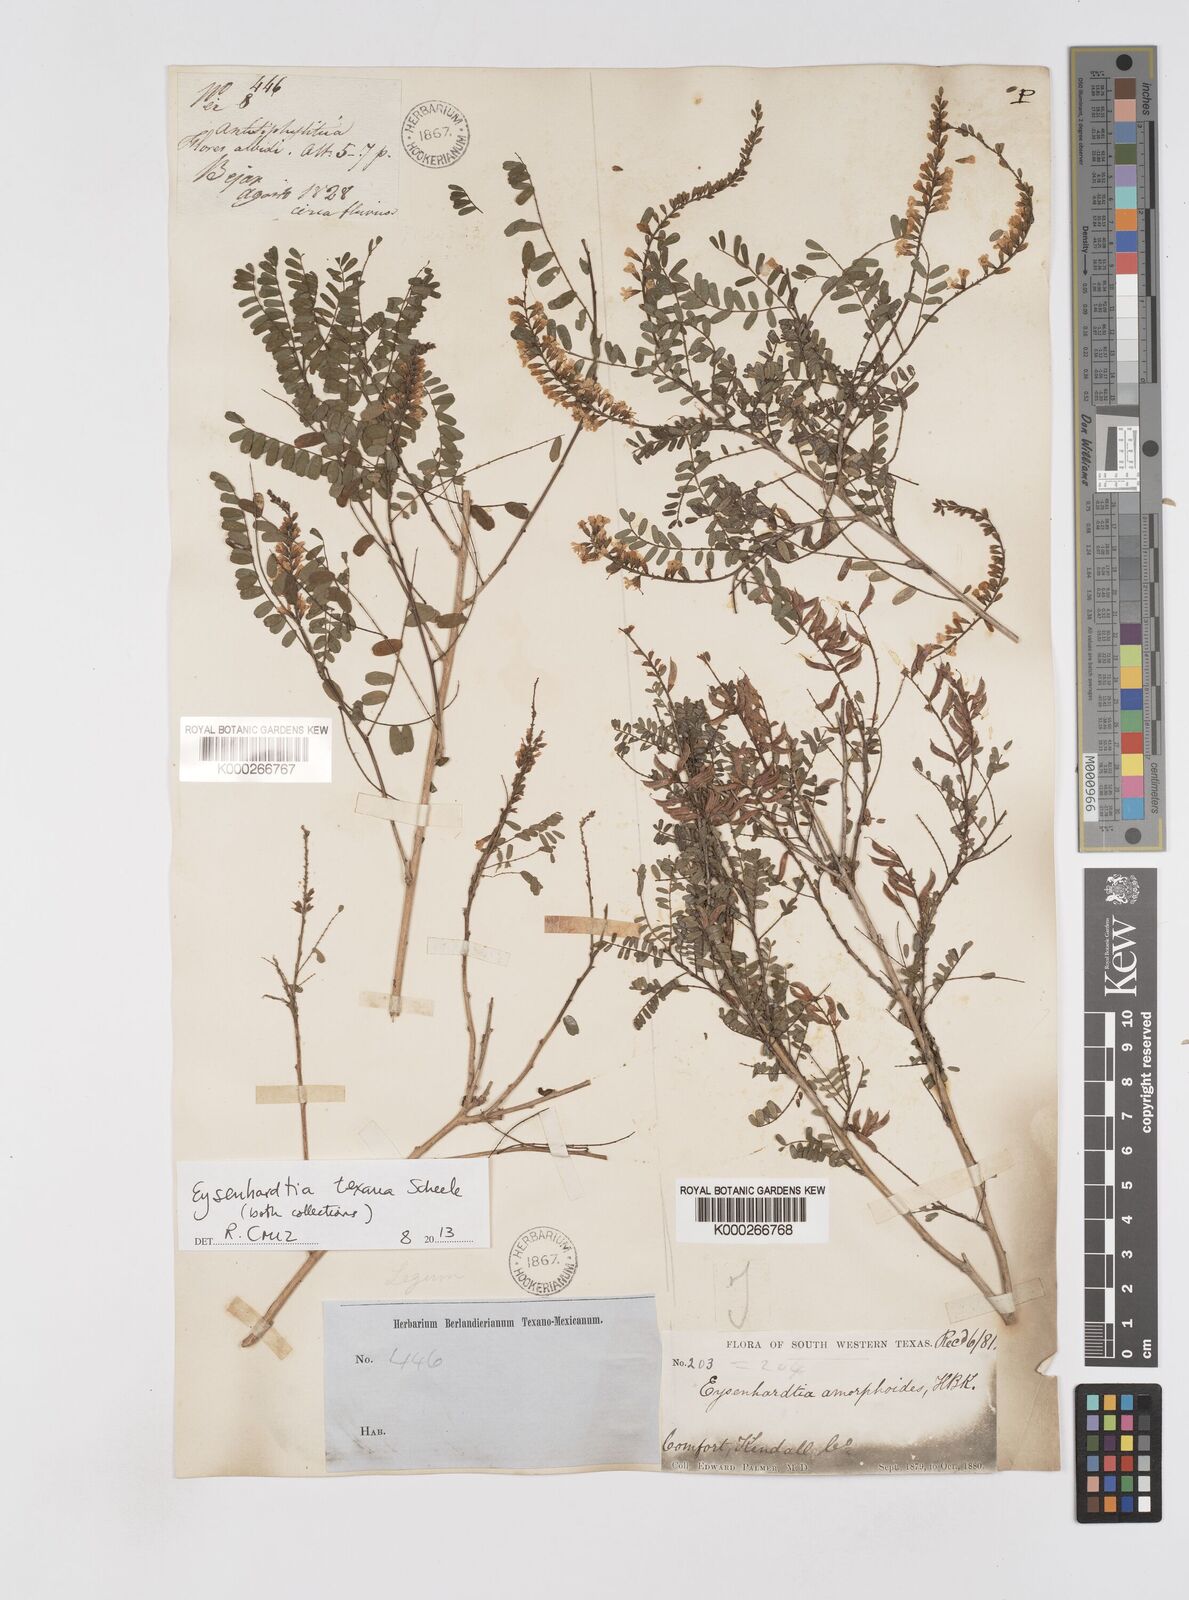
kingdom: Plantae
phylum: Tracheophyta
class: Magnoliopsida
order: Fabales
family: Fabaceae
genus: Eysenhardtia
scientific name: Eysenhardtia texana
